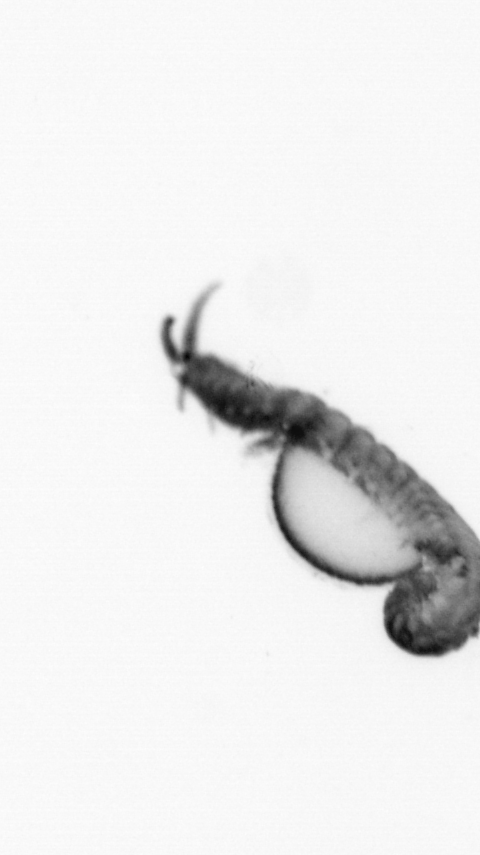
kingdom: Animalia
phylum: Annelida
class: Polychaeta
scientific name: Polychaeta
